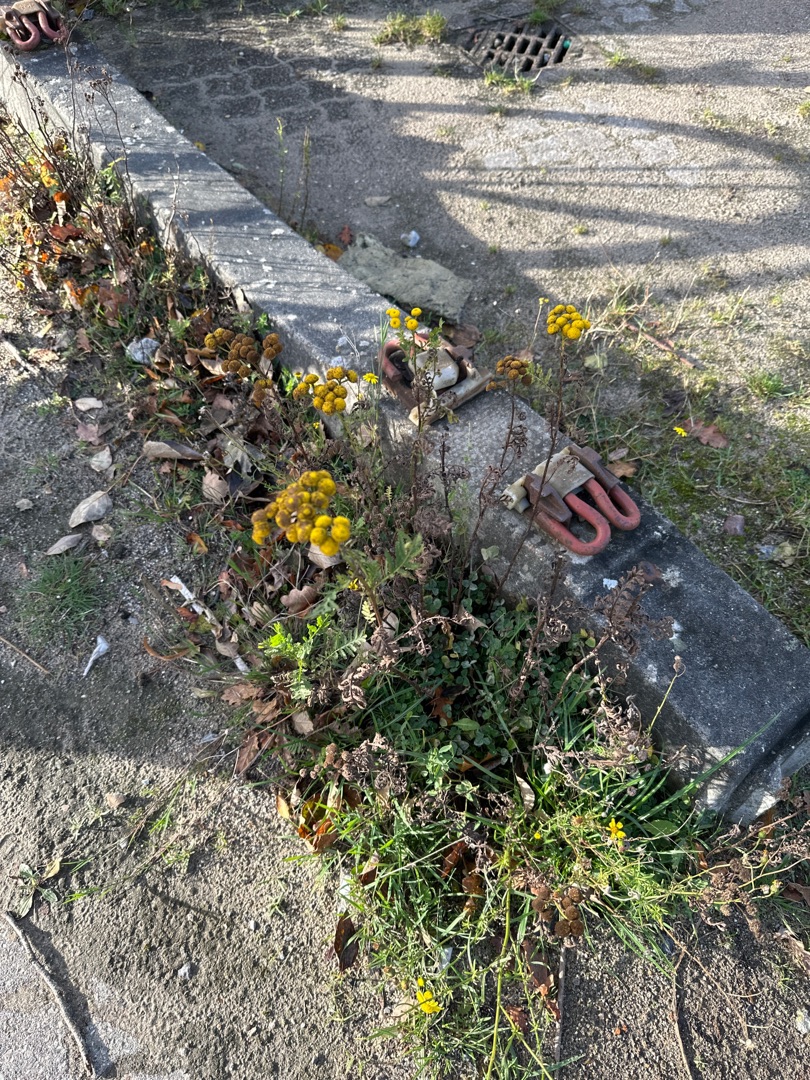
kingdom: Plantae
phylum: Tracheophyta
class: Magnoliopsida
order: Asterales
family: Asteraceae
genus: Tanacetum
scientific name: Tanacetum vulgare
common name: Rejnfan
